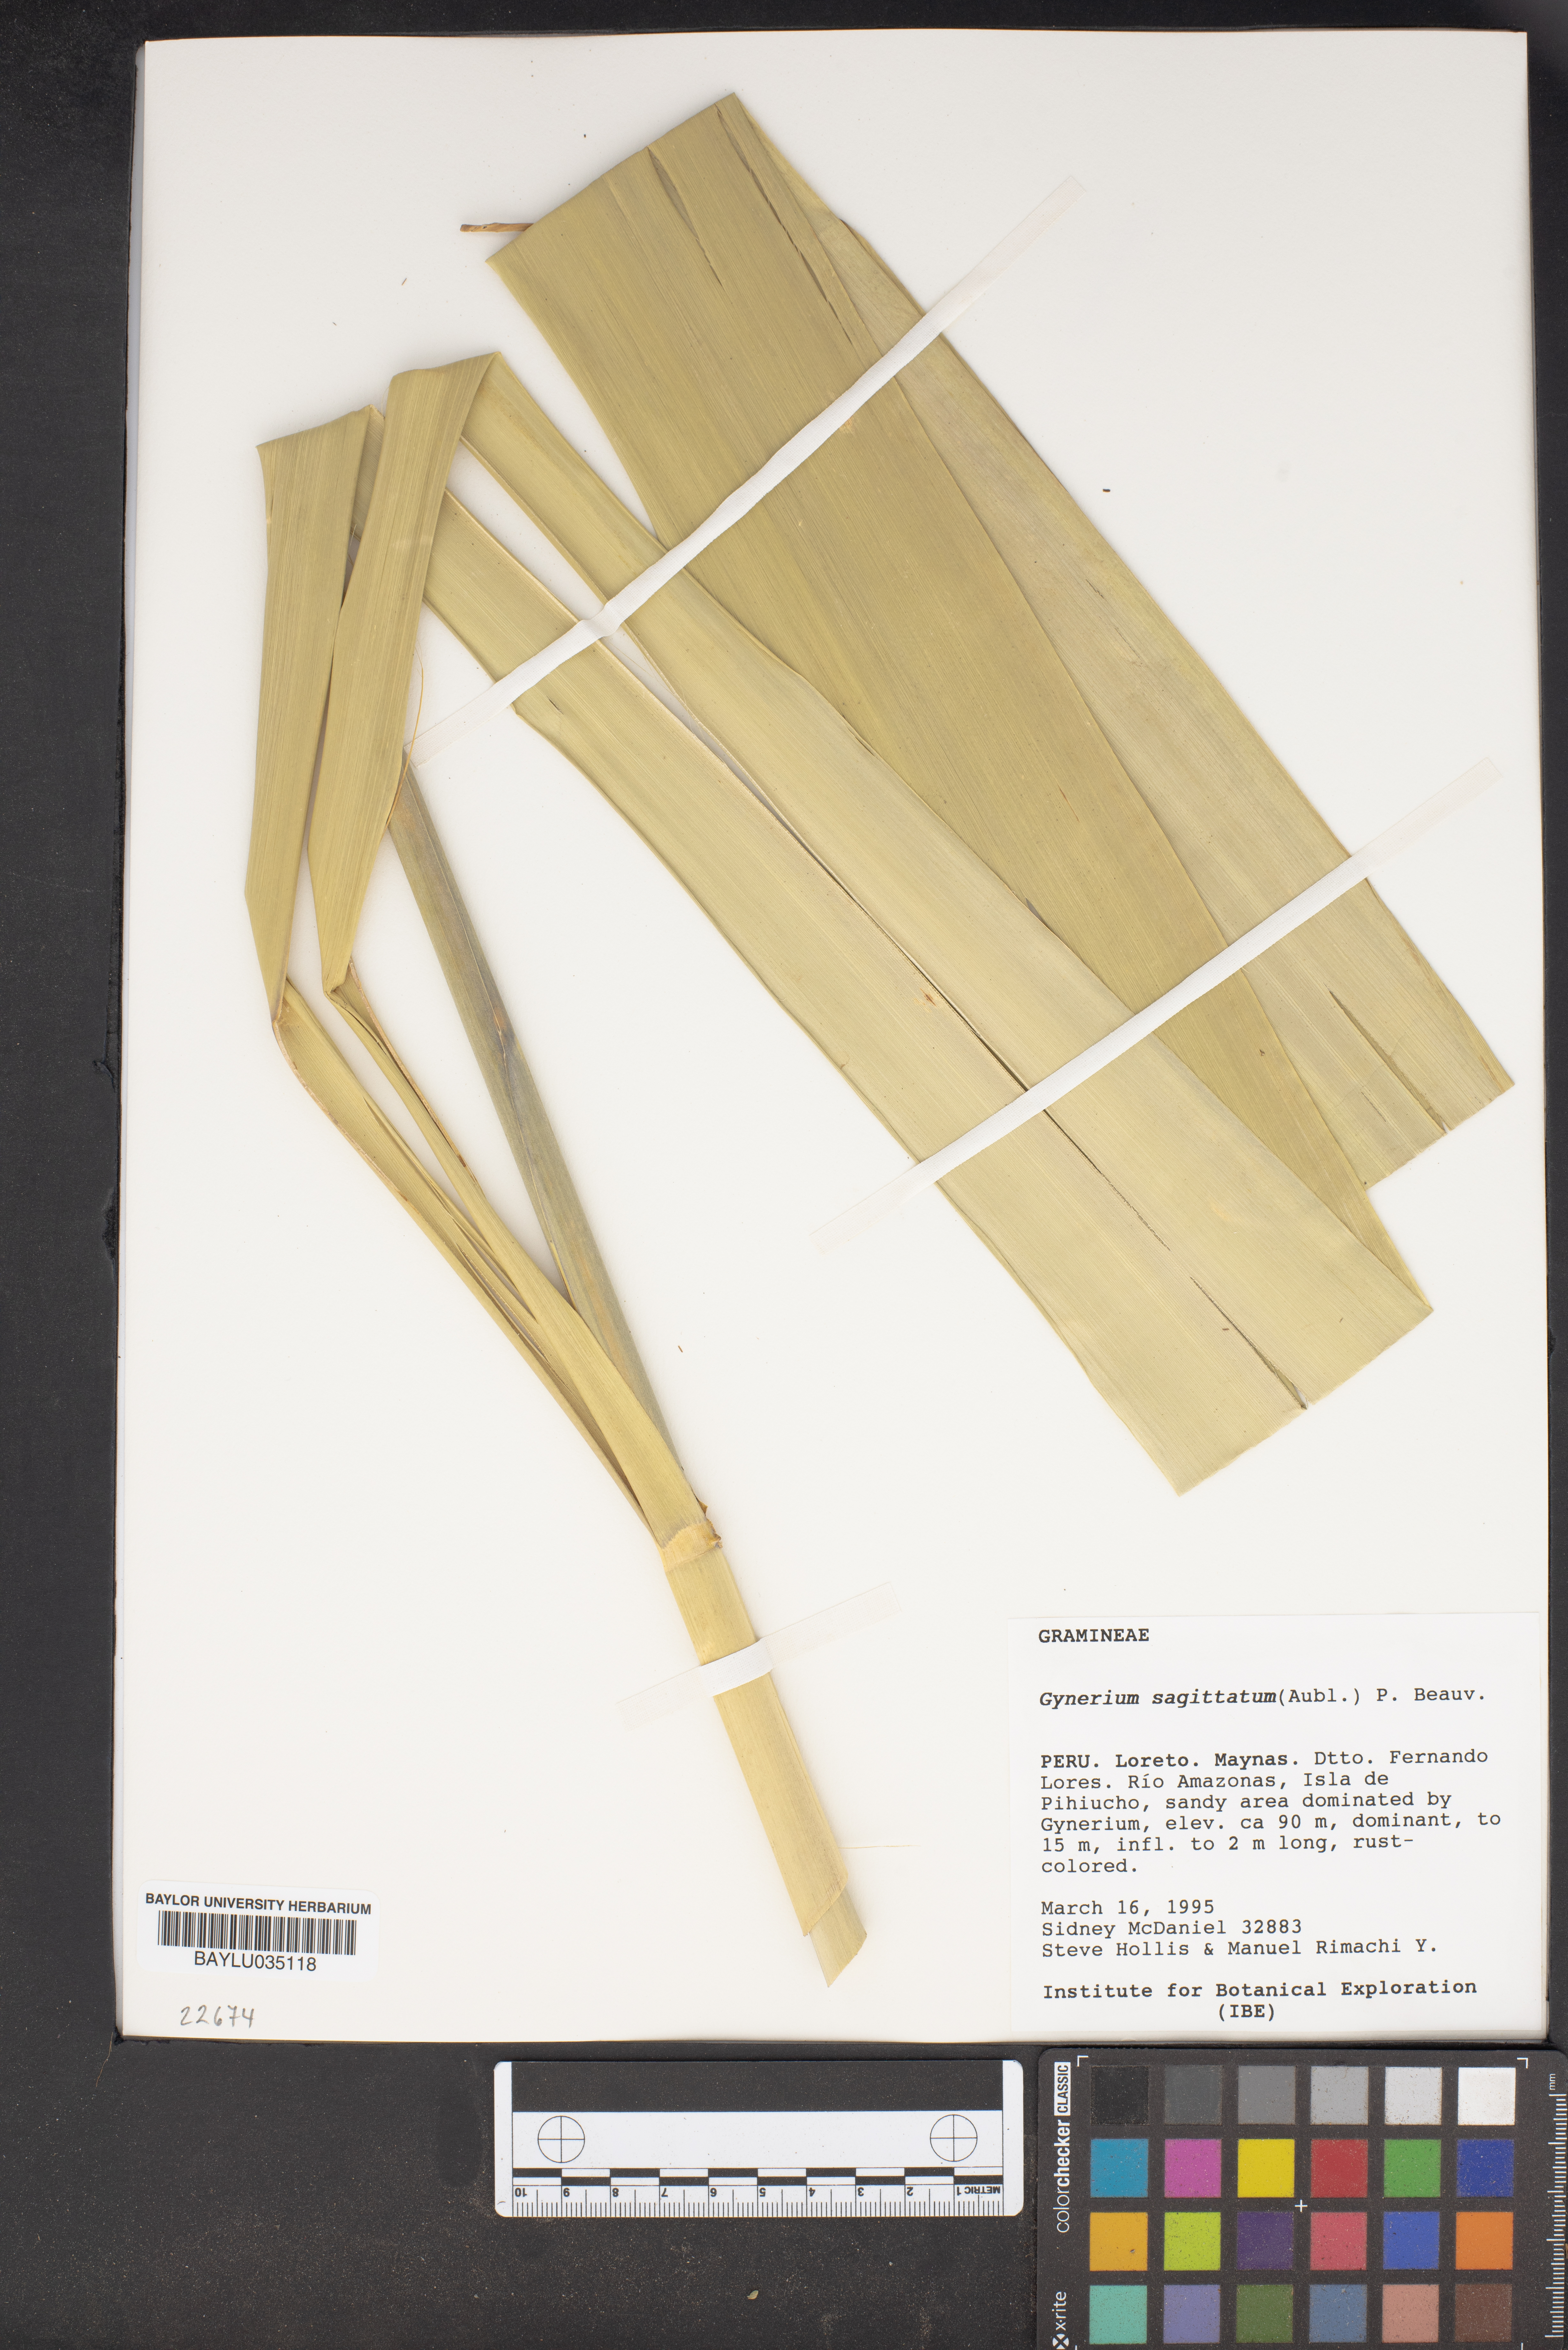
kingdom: Plantae
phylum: Tracheophyta
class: Liliopsida
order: Poales
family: Poaceae
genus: Gynerium
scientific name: Gynerium sagittatum
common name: Wild cane
